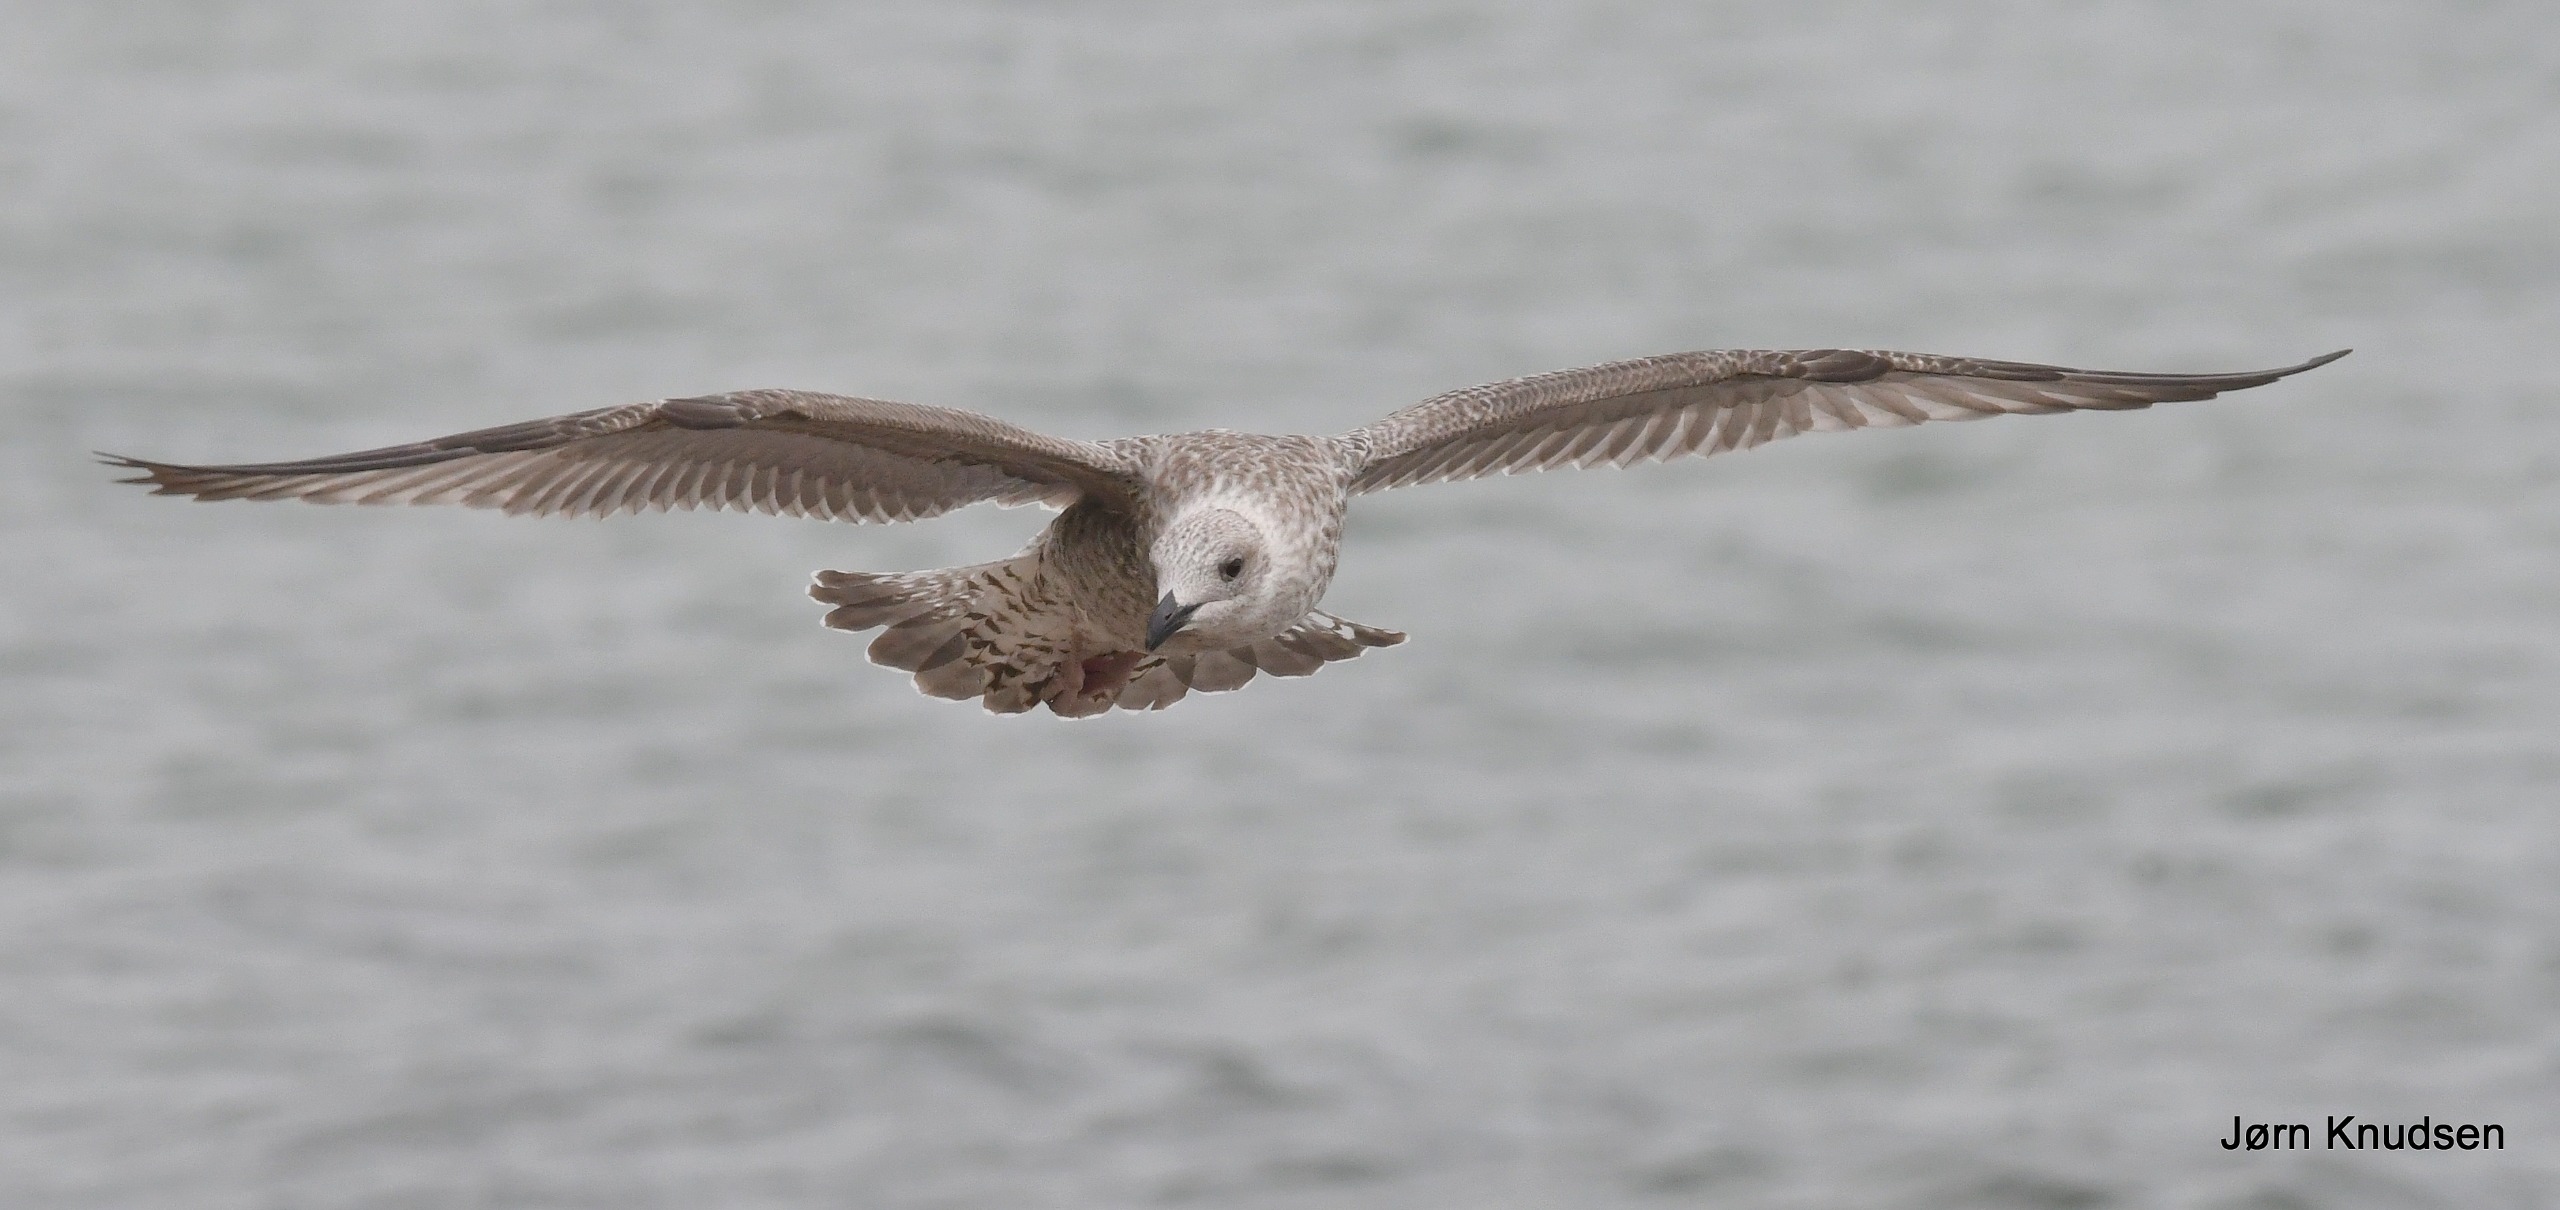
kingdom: Animalia
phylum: Chordata
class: Aves
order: Charadriiformes
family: Laridae
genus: Larus
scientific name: Larus argentatus
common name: Sølvmåge
